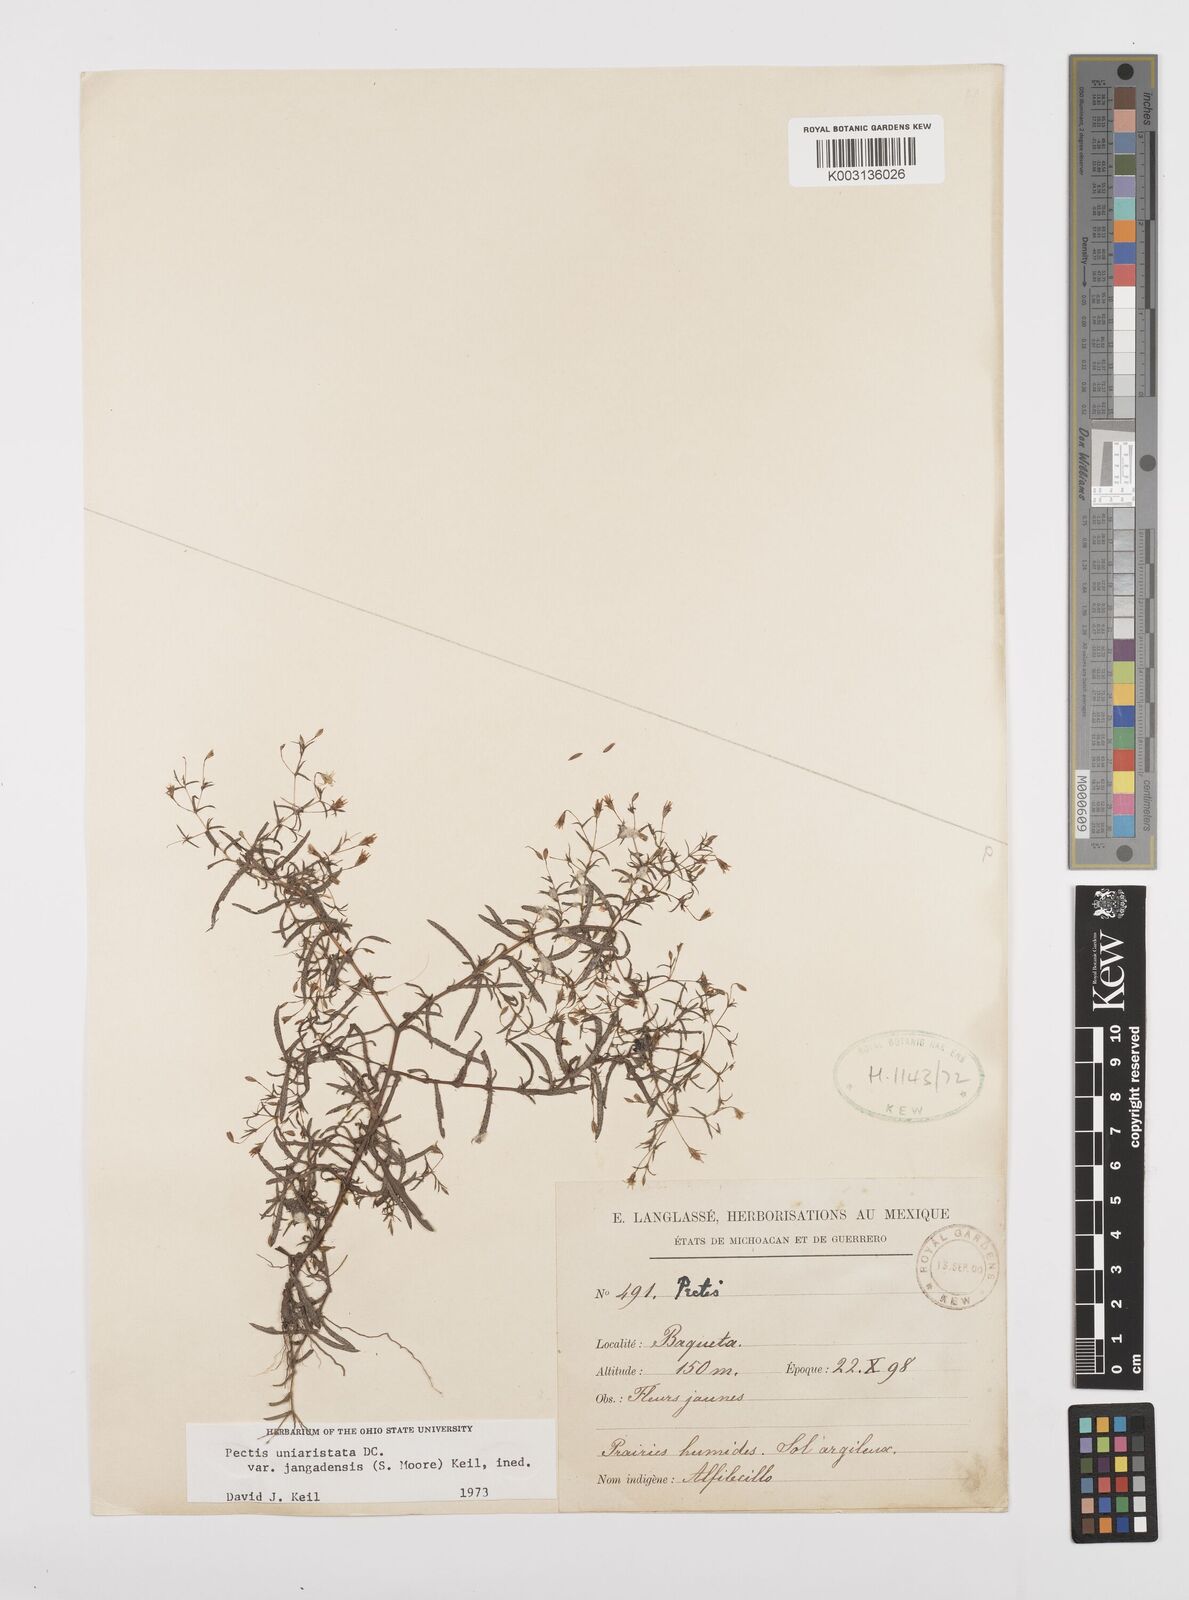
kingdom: Plantae
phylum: Tracheophyta
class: Magnoliopsida
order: Asterales
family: Asteraceae
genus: Pectis
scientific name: Pectis uniaristata
